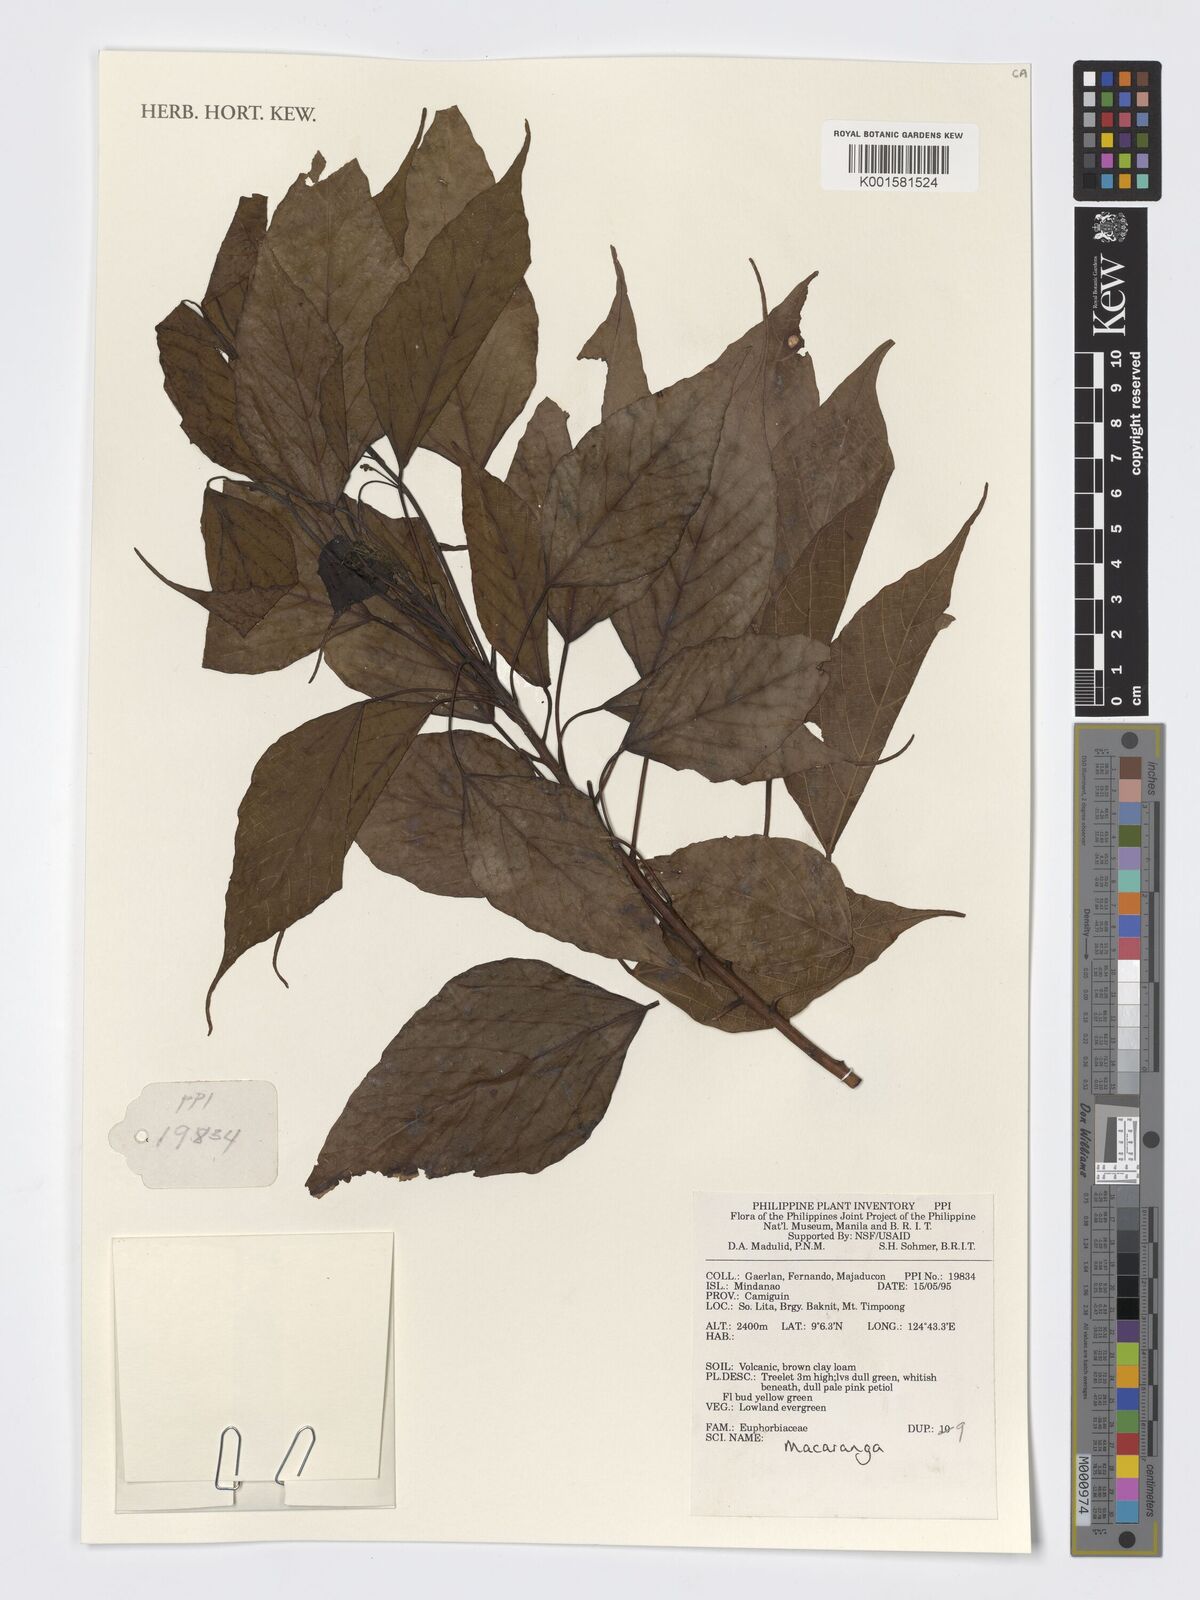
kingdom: Plantae
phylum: Tracheophyta
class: Magnoliopsida
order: Malpighiales
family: Euphorbiaceae
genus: Macaranga
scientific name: Macaranga
